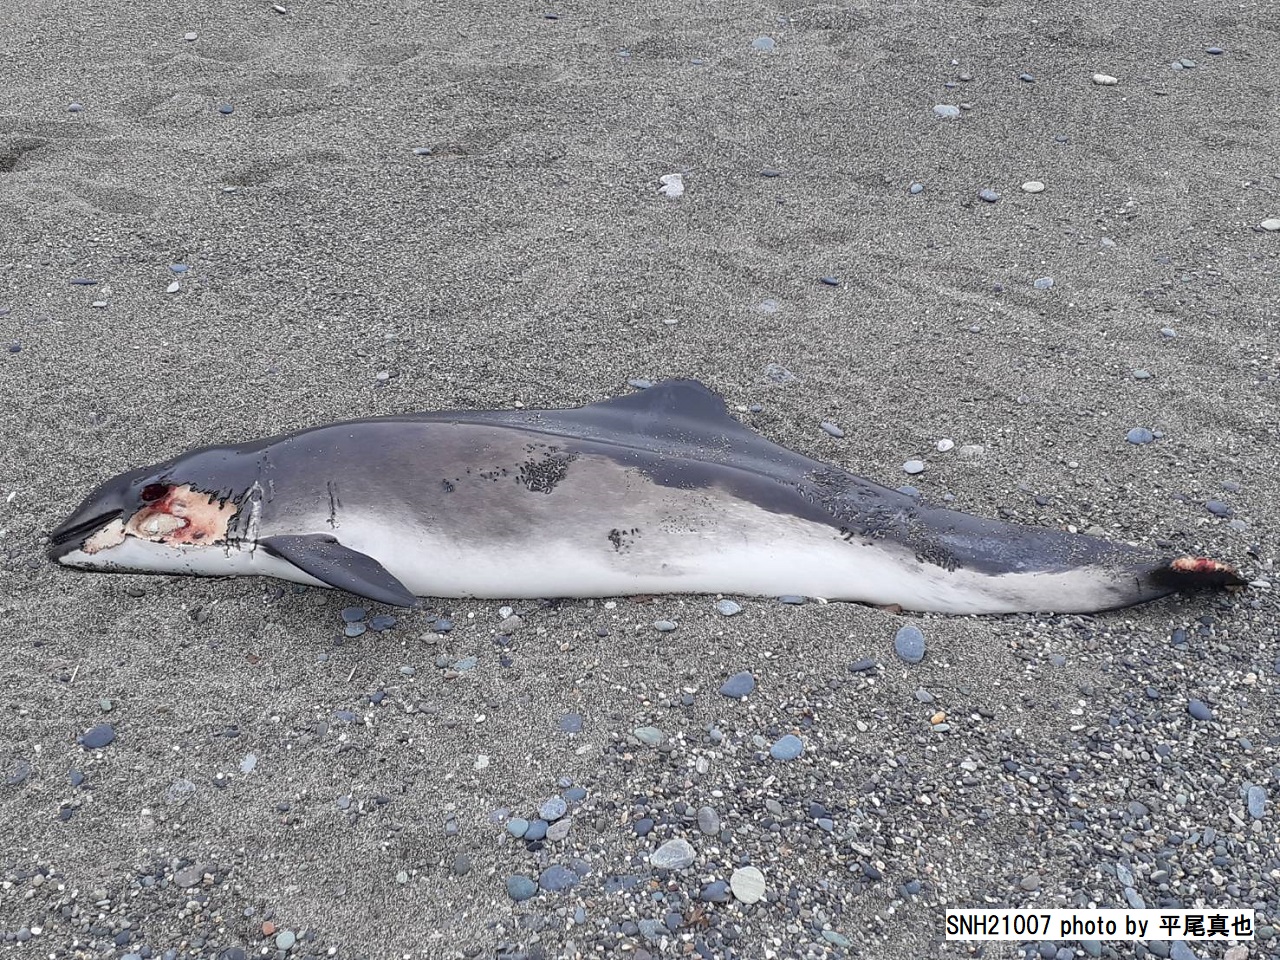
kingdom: Animalia
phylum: Chordata
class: Mammalia
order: Cetacea
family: Phocoenidae
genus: Phocoena
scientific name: Phocoena phocoena
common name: Harbour porpoise
